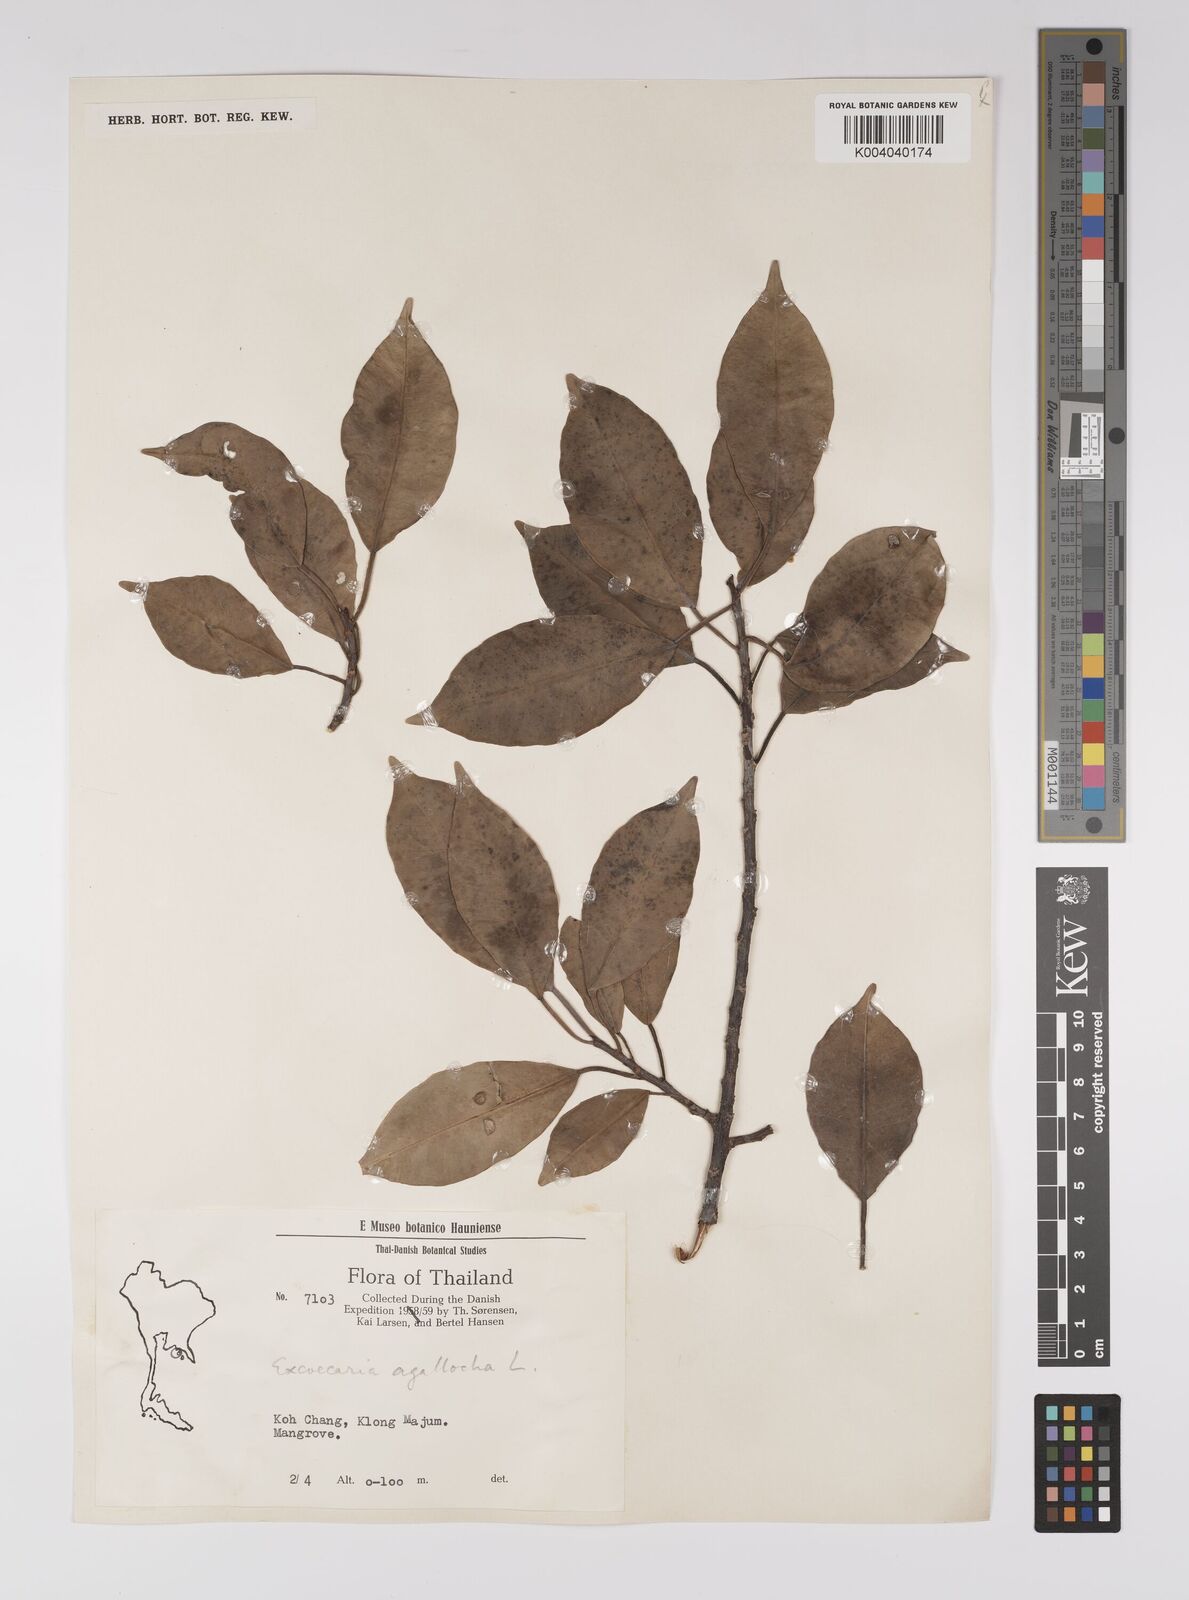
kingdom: Plantae
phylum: Tracheophyta
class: Magnoliopsida
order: Malpighiales
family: Euphorbiaceae
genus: Excoecaria
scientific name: Excoecaria agallocha
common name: River poisontree
